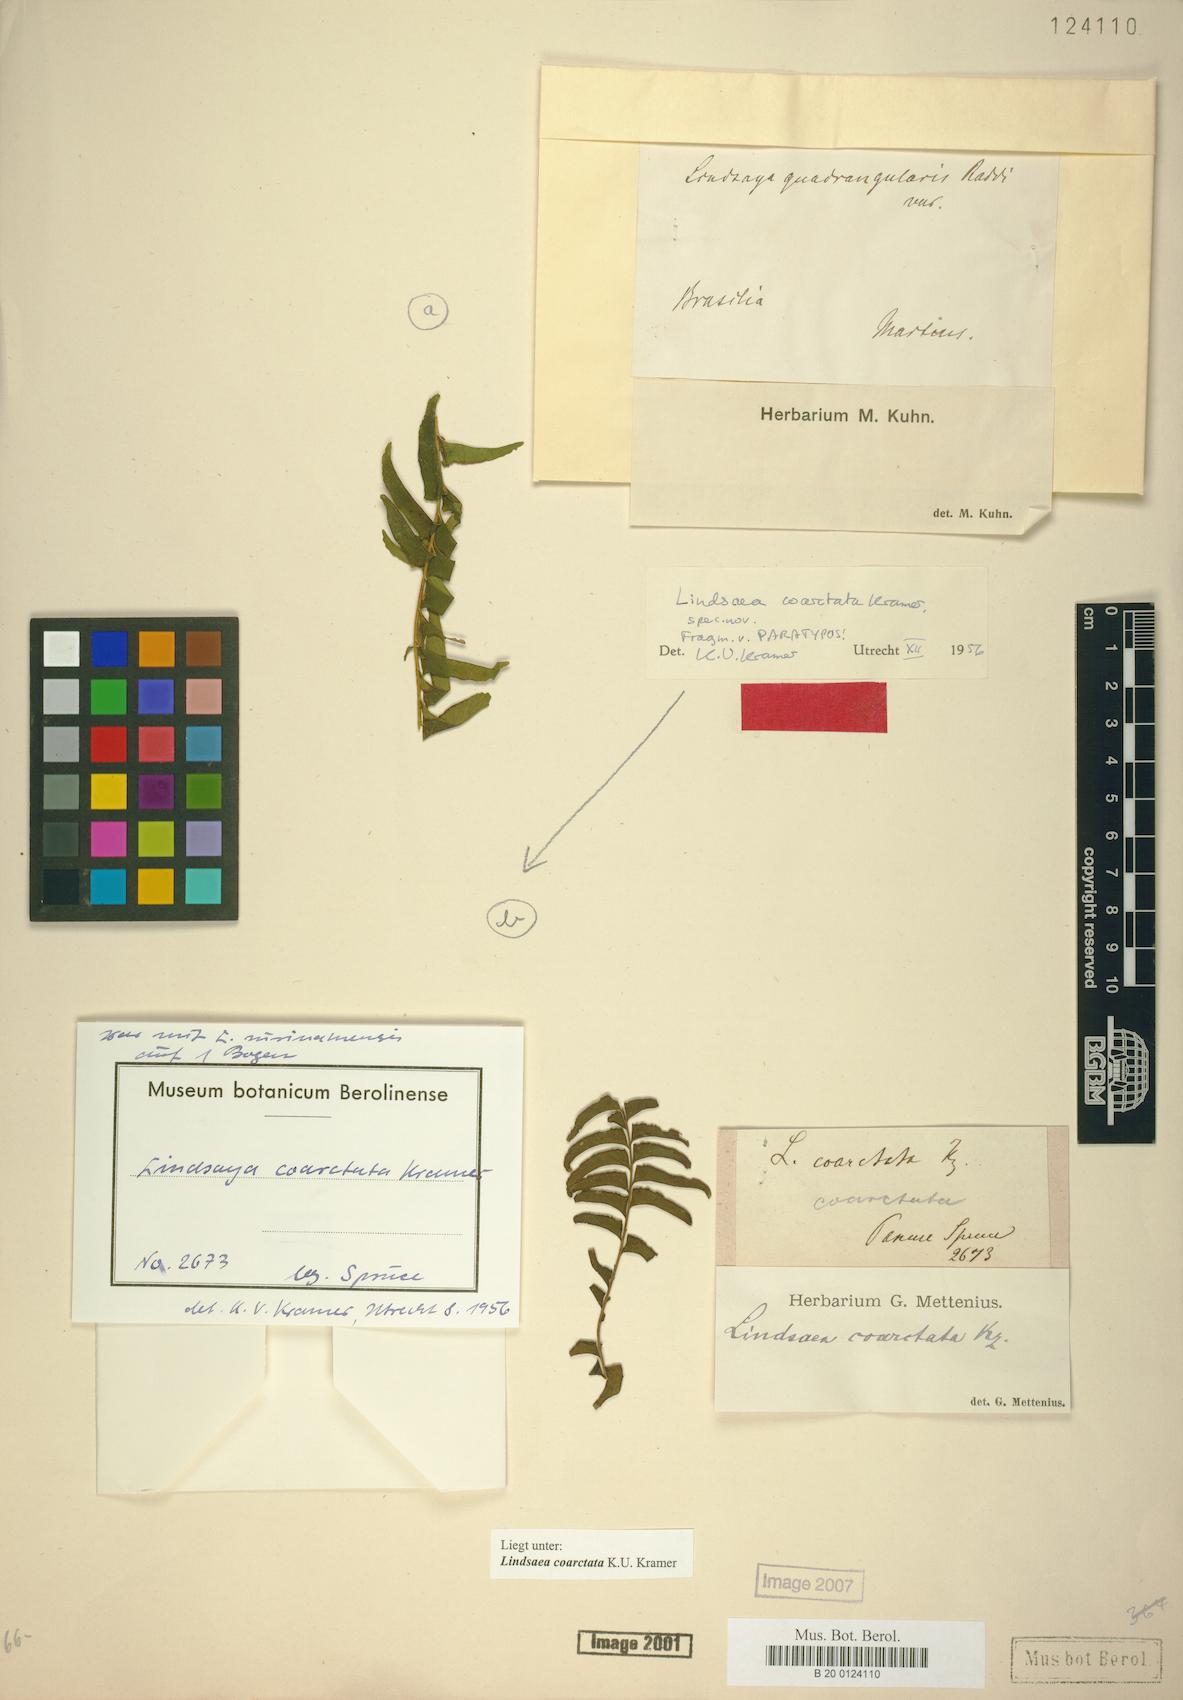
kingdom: Plantae
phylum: Tracheophyta
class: Polypodiopsida
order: Polypodiales
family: Lindsaeaceae
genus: Lindsaea
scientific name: Lindsaea coarctata
